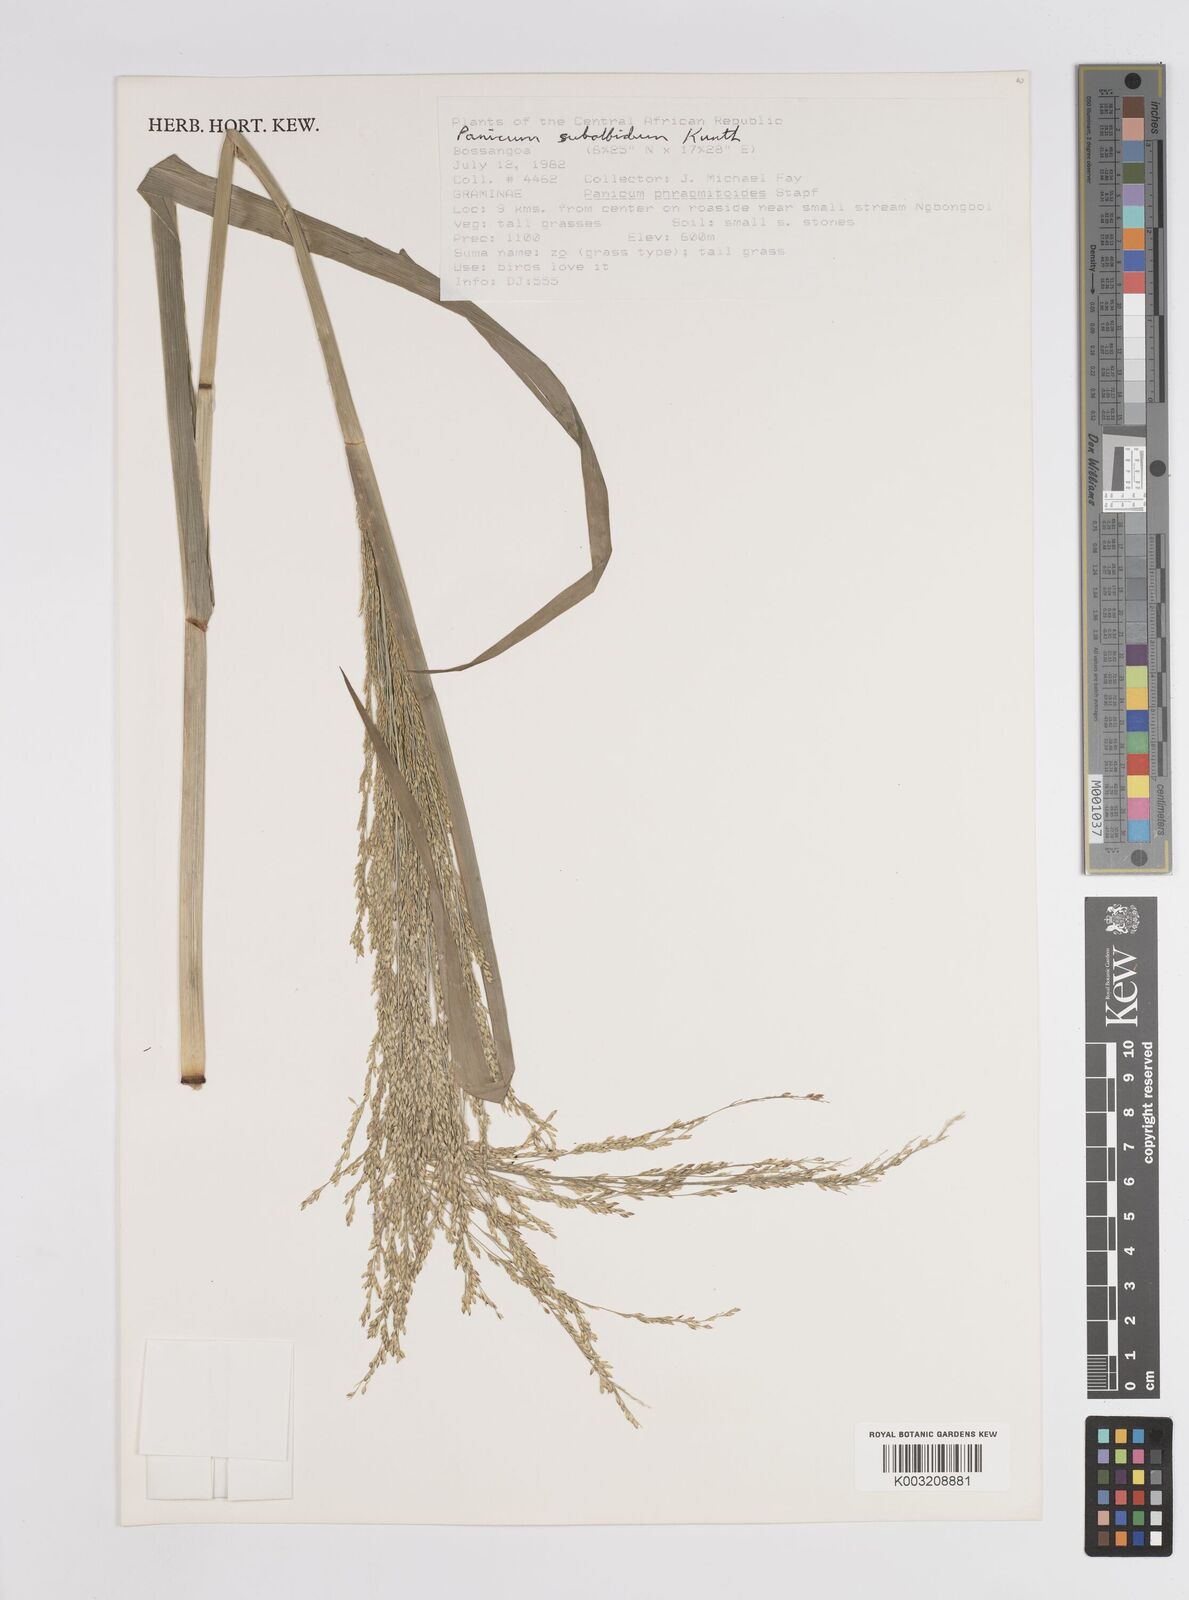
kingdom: Plantae
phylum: Tracheophyta
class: Liliopsida
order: Poales
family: Poaceae
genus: Panicum
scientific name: Panicum subalbidum
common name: Elbow buffalo grass
